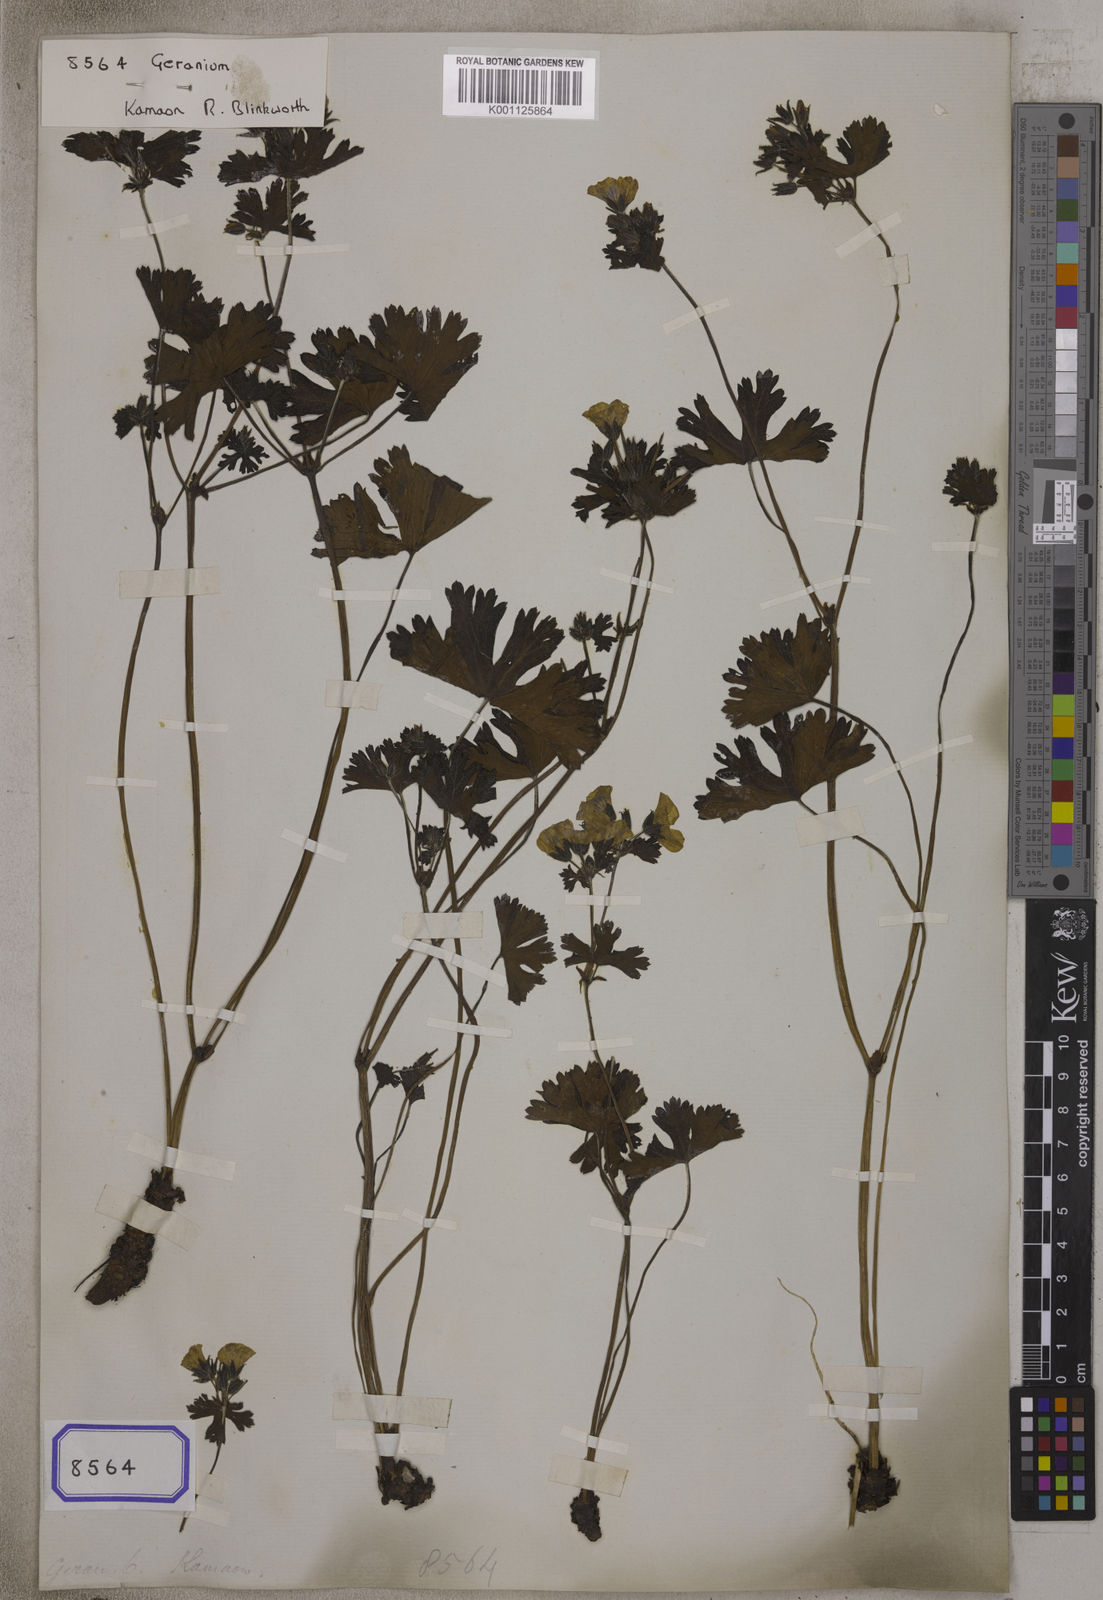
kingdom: Plantae
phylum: Tracheophyta
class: Magnoliopsida
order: Geraniales
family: Geraniaceae
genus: Geranium
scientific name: Geranium
